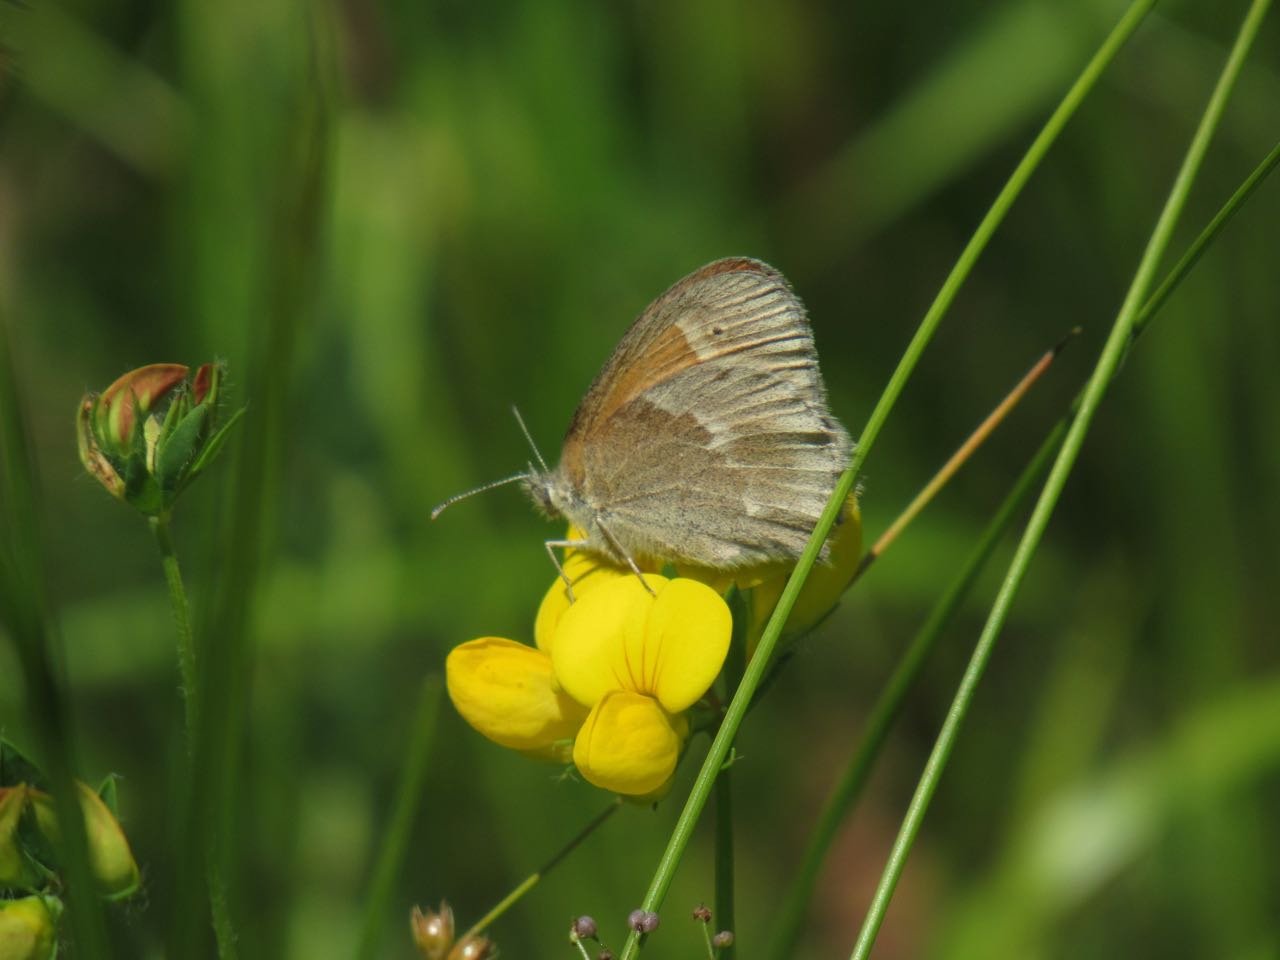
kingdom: Animalia
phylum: Arthropoda
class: Insecta
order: Lepidoptera
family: Nymphalidae
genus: Coenonympha
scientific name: Coenonympha tullia
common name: Large Heath
